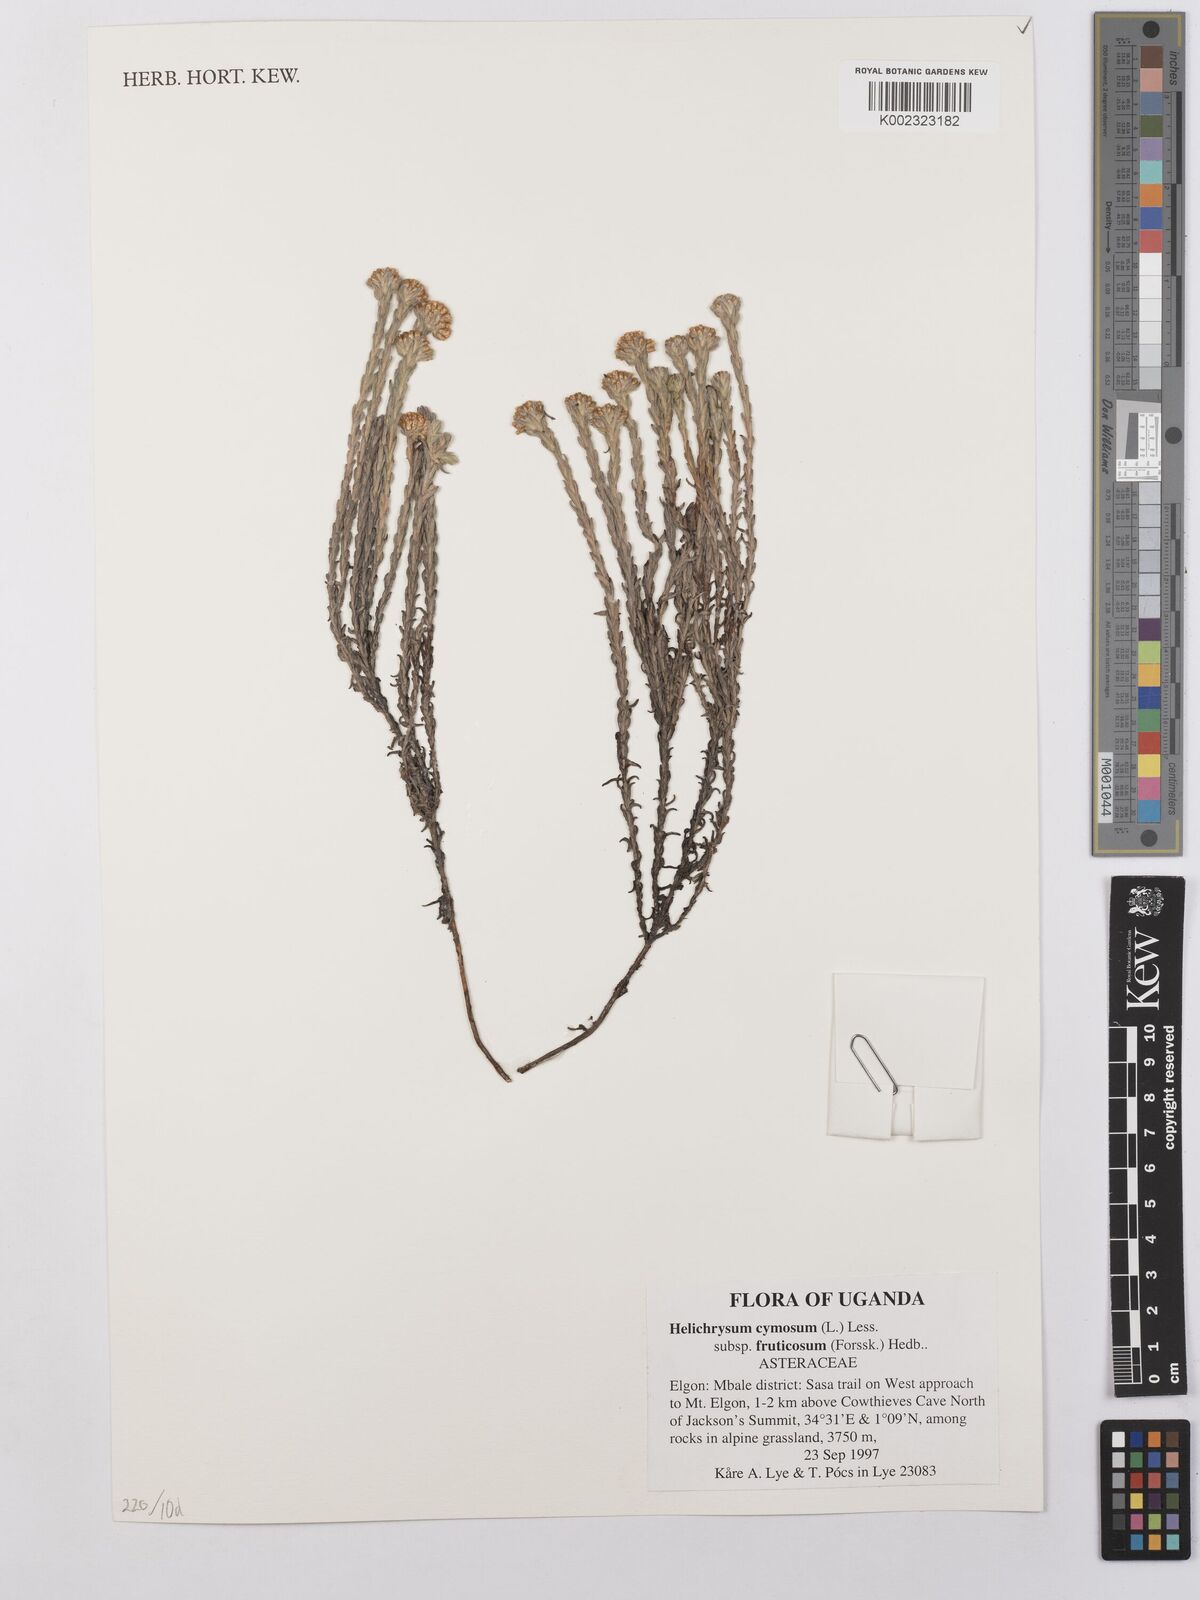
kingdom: Plantae
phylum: Tracheophyta
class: Magnoliopsida
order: Asterales
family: Asteraceae
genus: Helichrysum
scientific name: Helichrysum forskahlii
